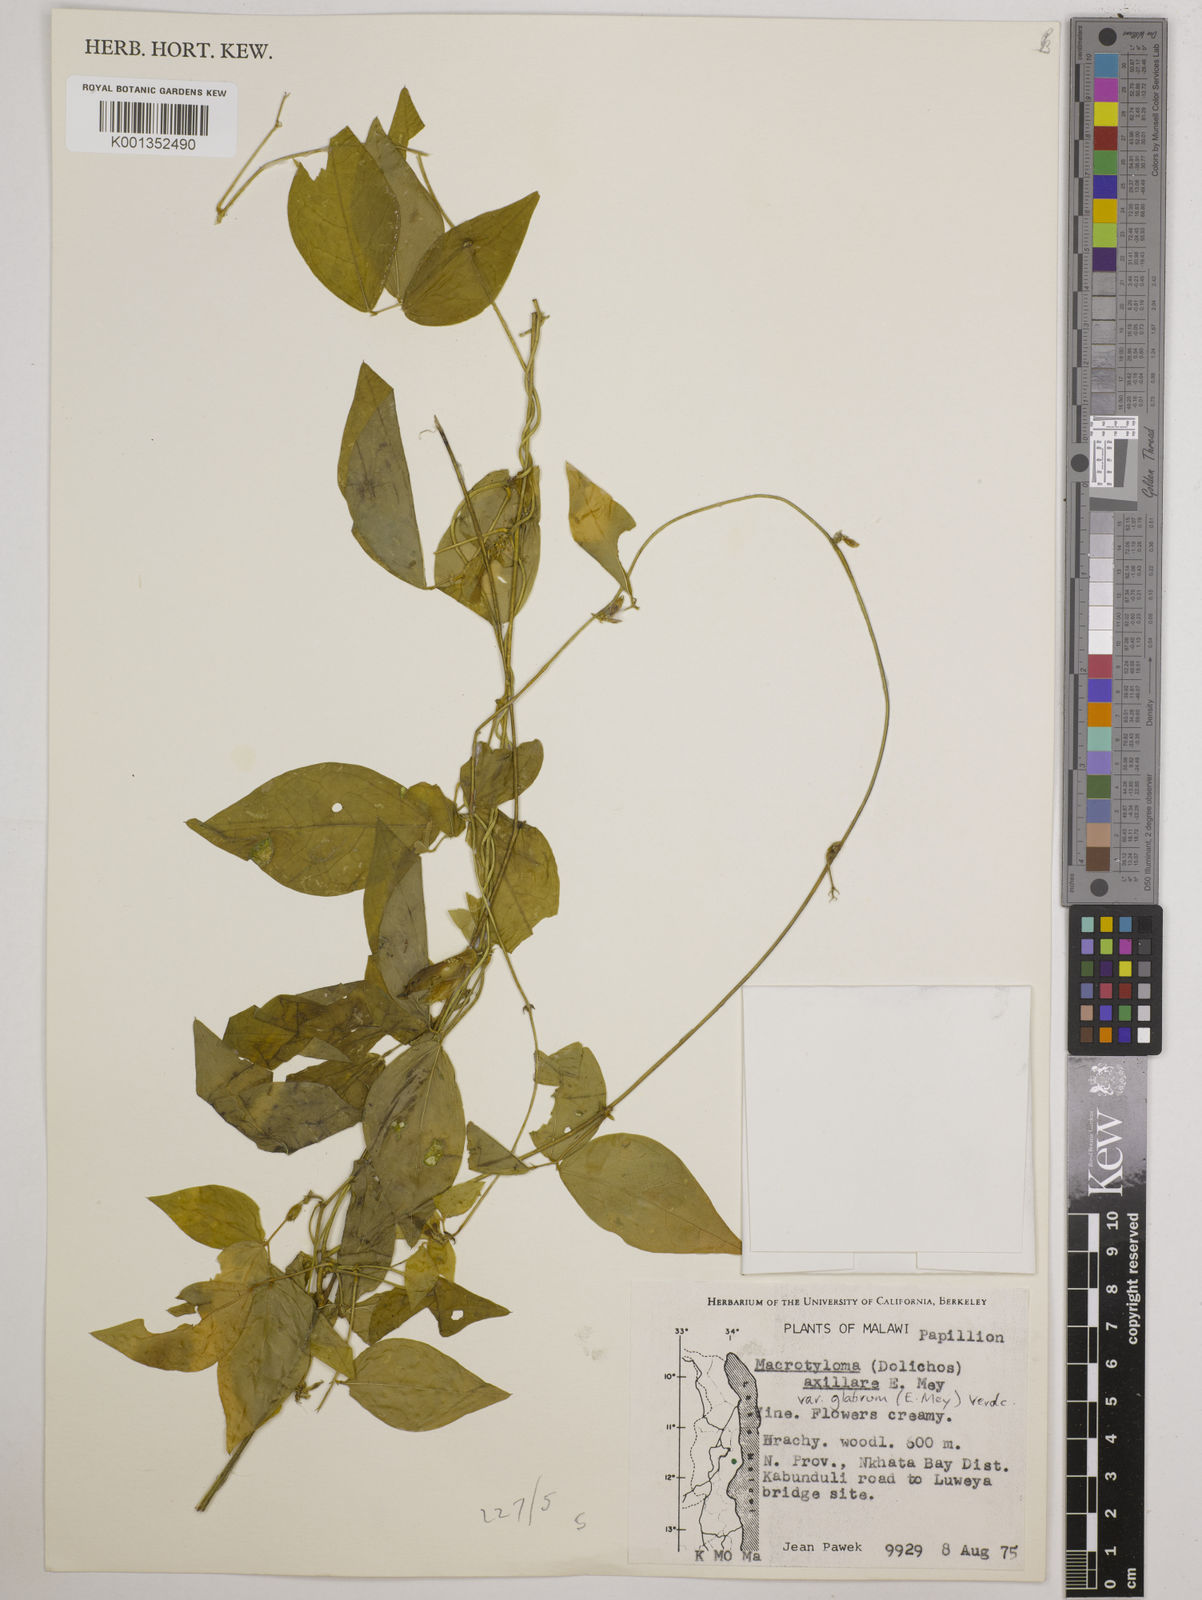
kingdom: Plantae
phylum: Tracheophyta
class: Magnoliopsida
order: Fabales
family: Fabaceae
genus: Macrotyloma
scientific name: Macrotyloma
